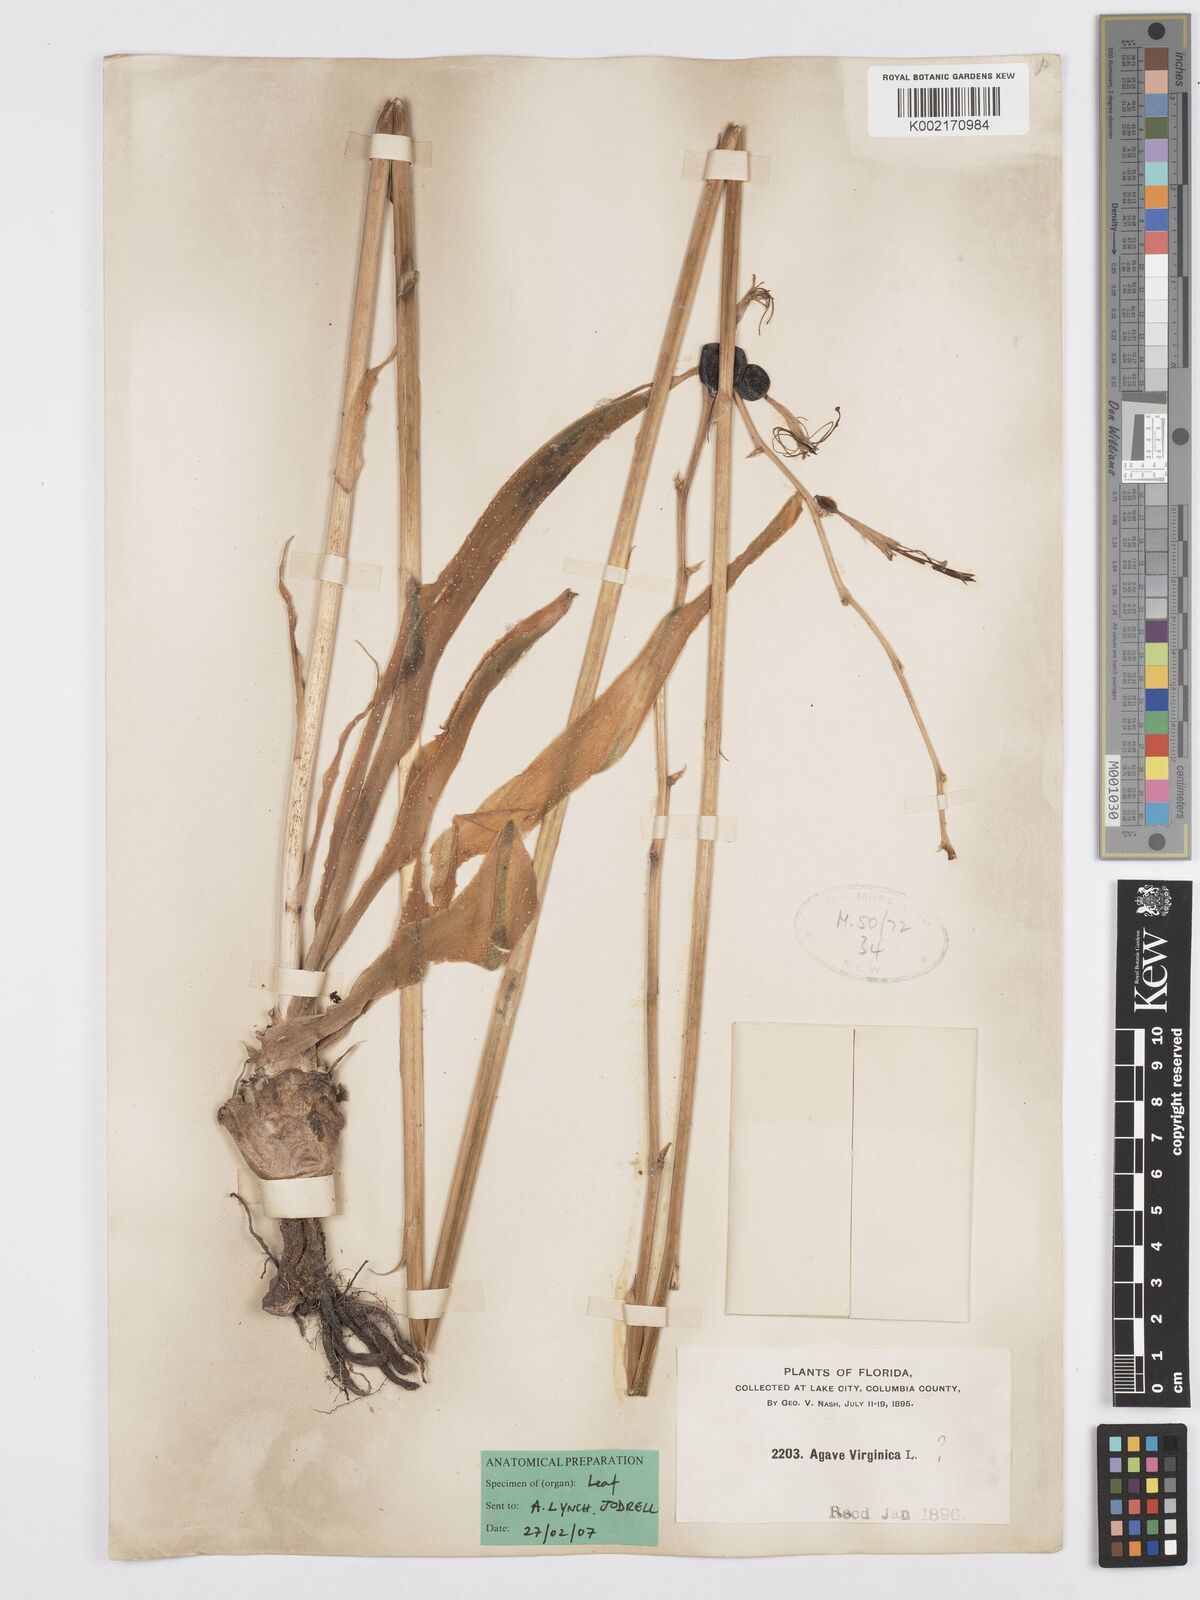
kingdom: Plantae
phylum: Tracheophyta
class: Liliopsida
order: Asparagales
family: Asparagaceae
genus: Agave
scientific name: Agave virginica
